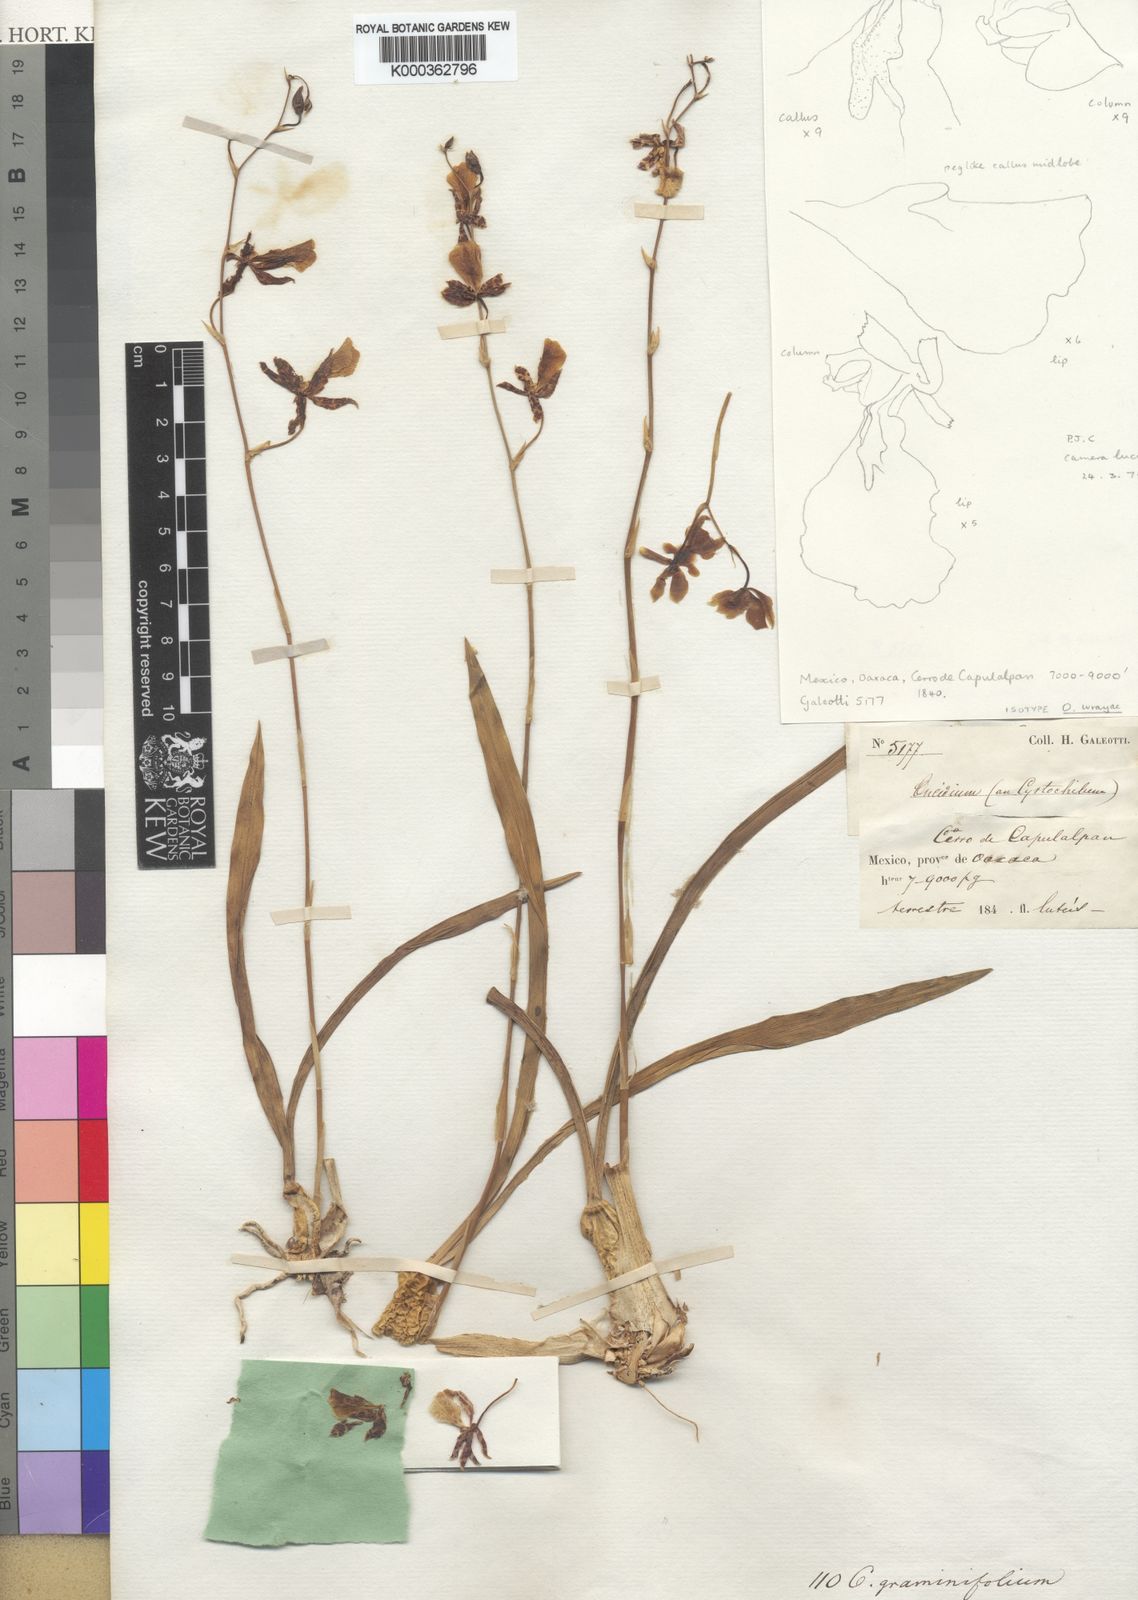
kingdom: Plantae
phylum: Tracheophyta
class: Liliopsida
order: Asparagales
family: Orchidaceae
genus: Oncidium
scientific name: Oncidium graminifolium
